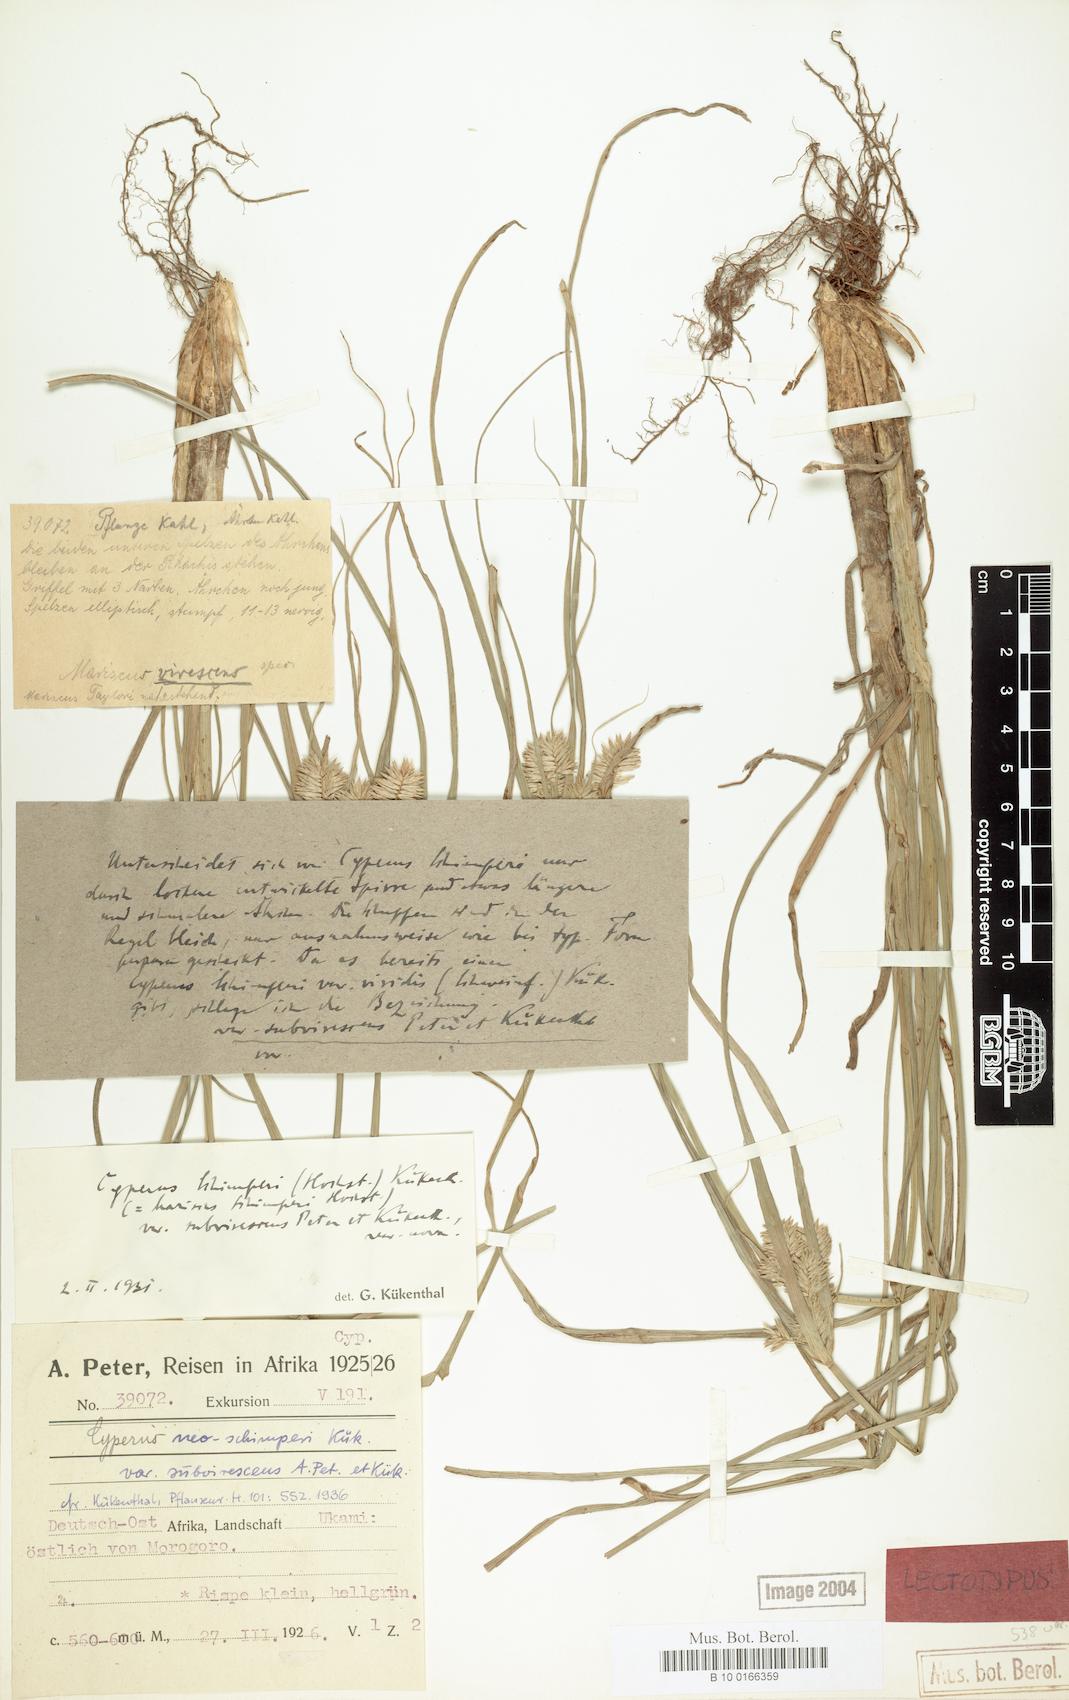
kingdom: Plantae
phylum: Tracheophyta
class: Liliopsida
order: Poales
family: Cyperaceae
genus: Cyperus
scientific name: Cyperus cruentus
